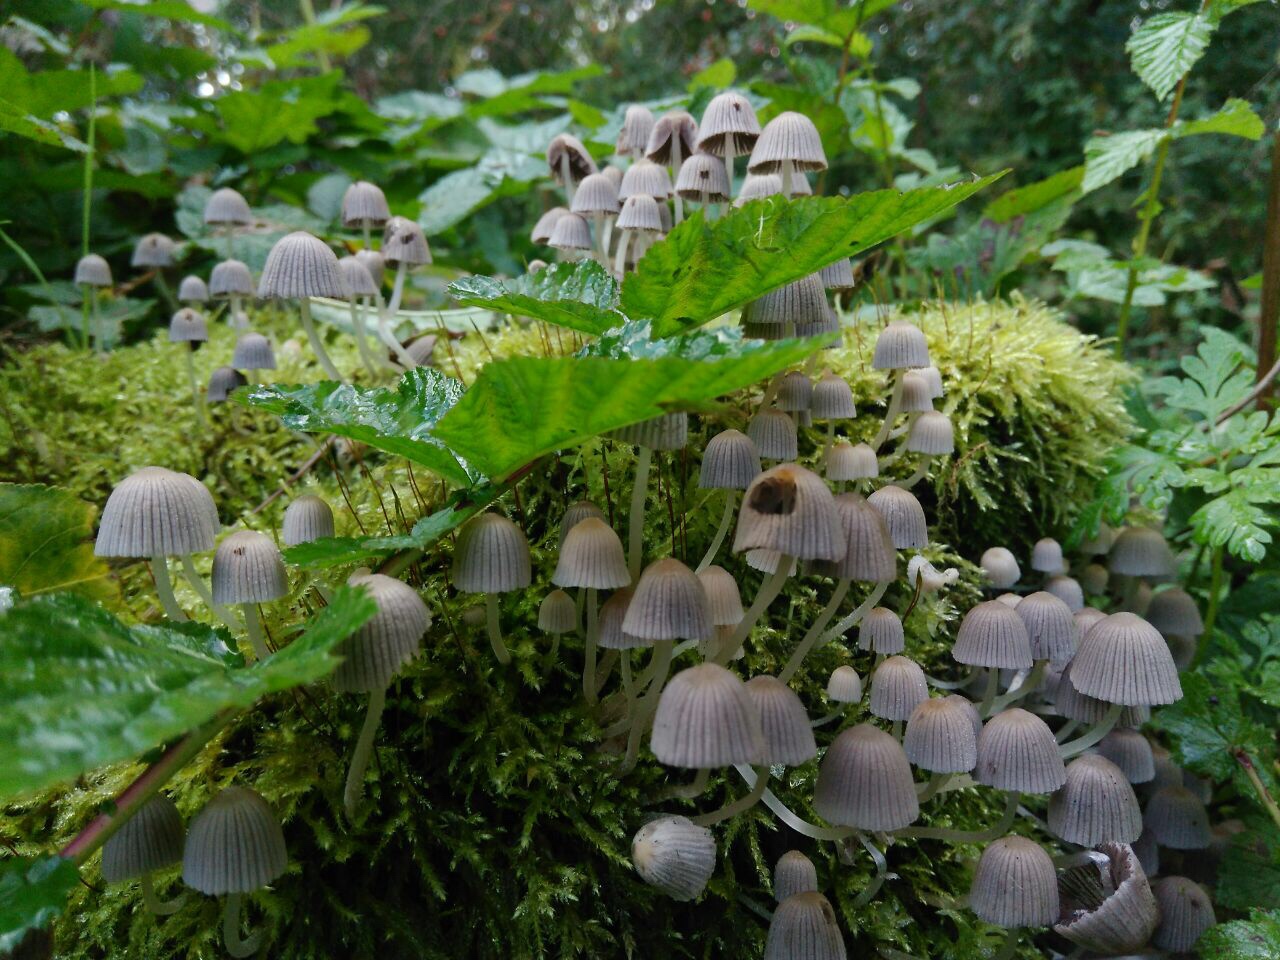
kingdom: Fungi
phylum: Basidiomycota
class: Agaricomycetes
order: Agaricales
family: Psathyrellaceae
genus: Coprinellus
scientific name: Coprinellus disseminatus
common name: bredsået blækhat
